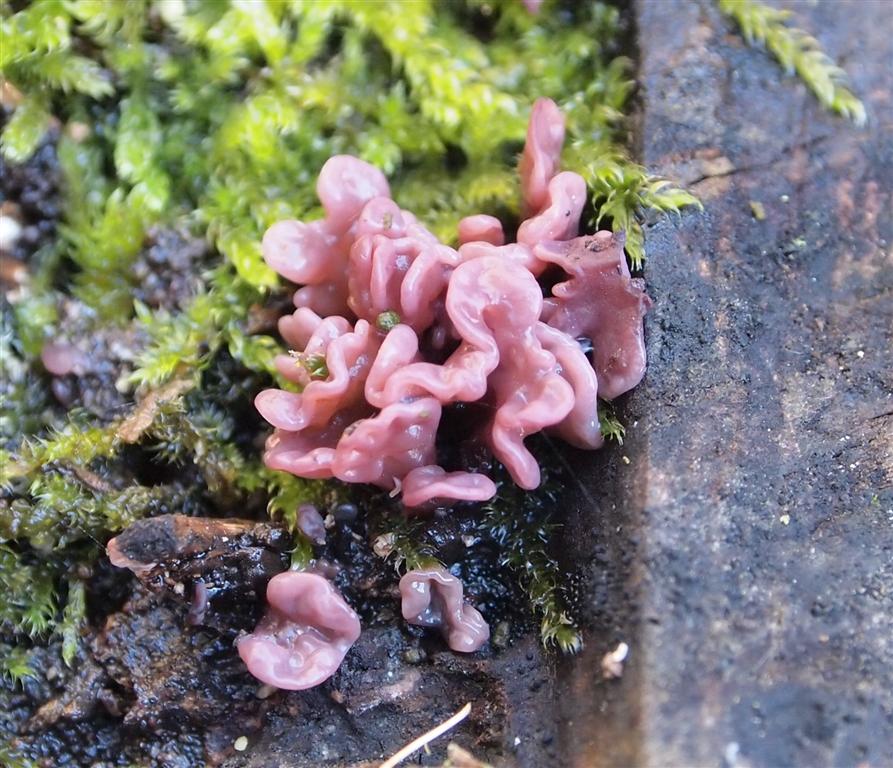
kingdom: Fungi
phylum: Ascomycota
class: Leotiomycetes
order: Helotiales
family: Gelatinodiscaceae
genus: Ascocoryne
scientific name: Ascocoryne sarcoides
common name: rødlilla sejskive
